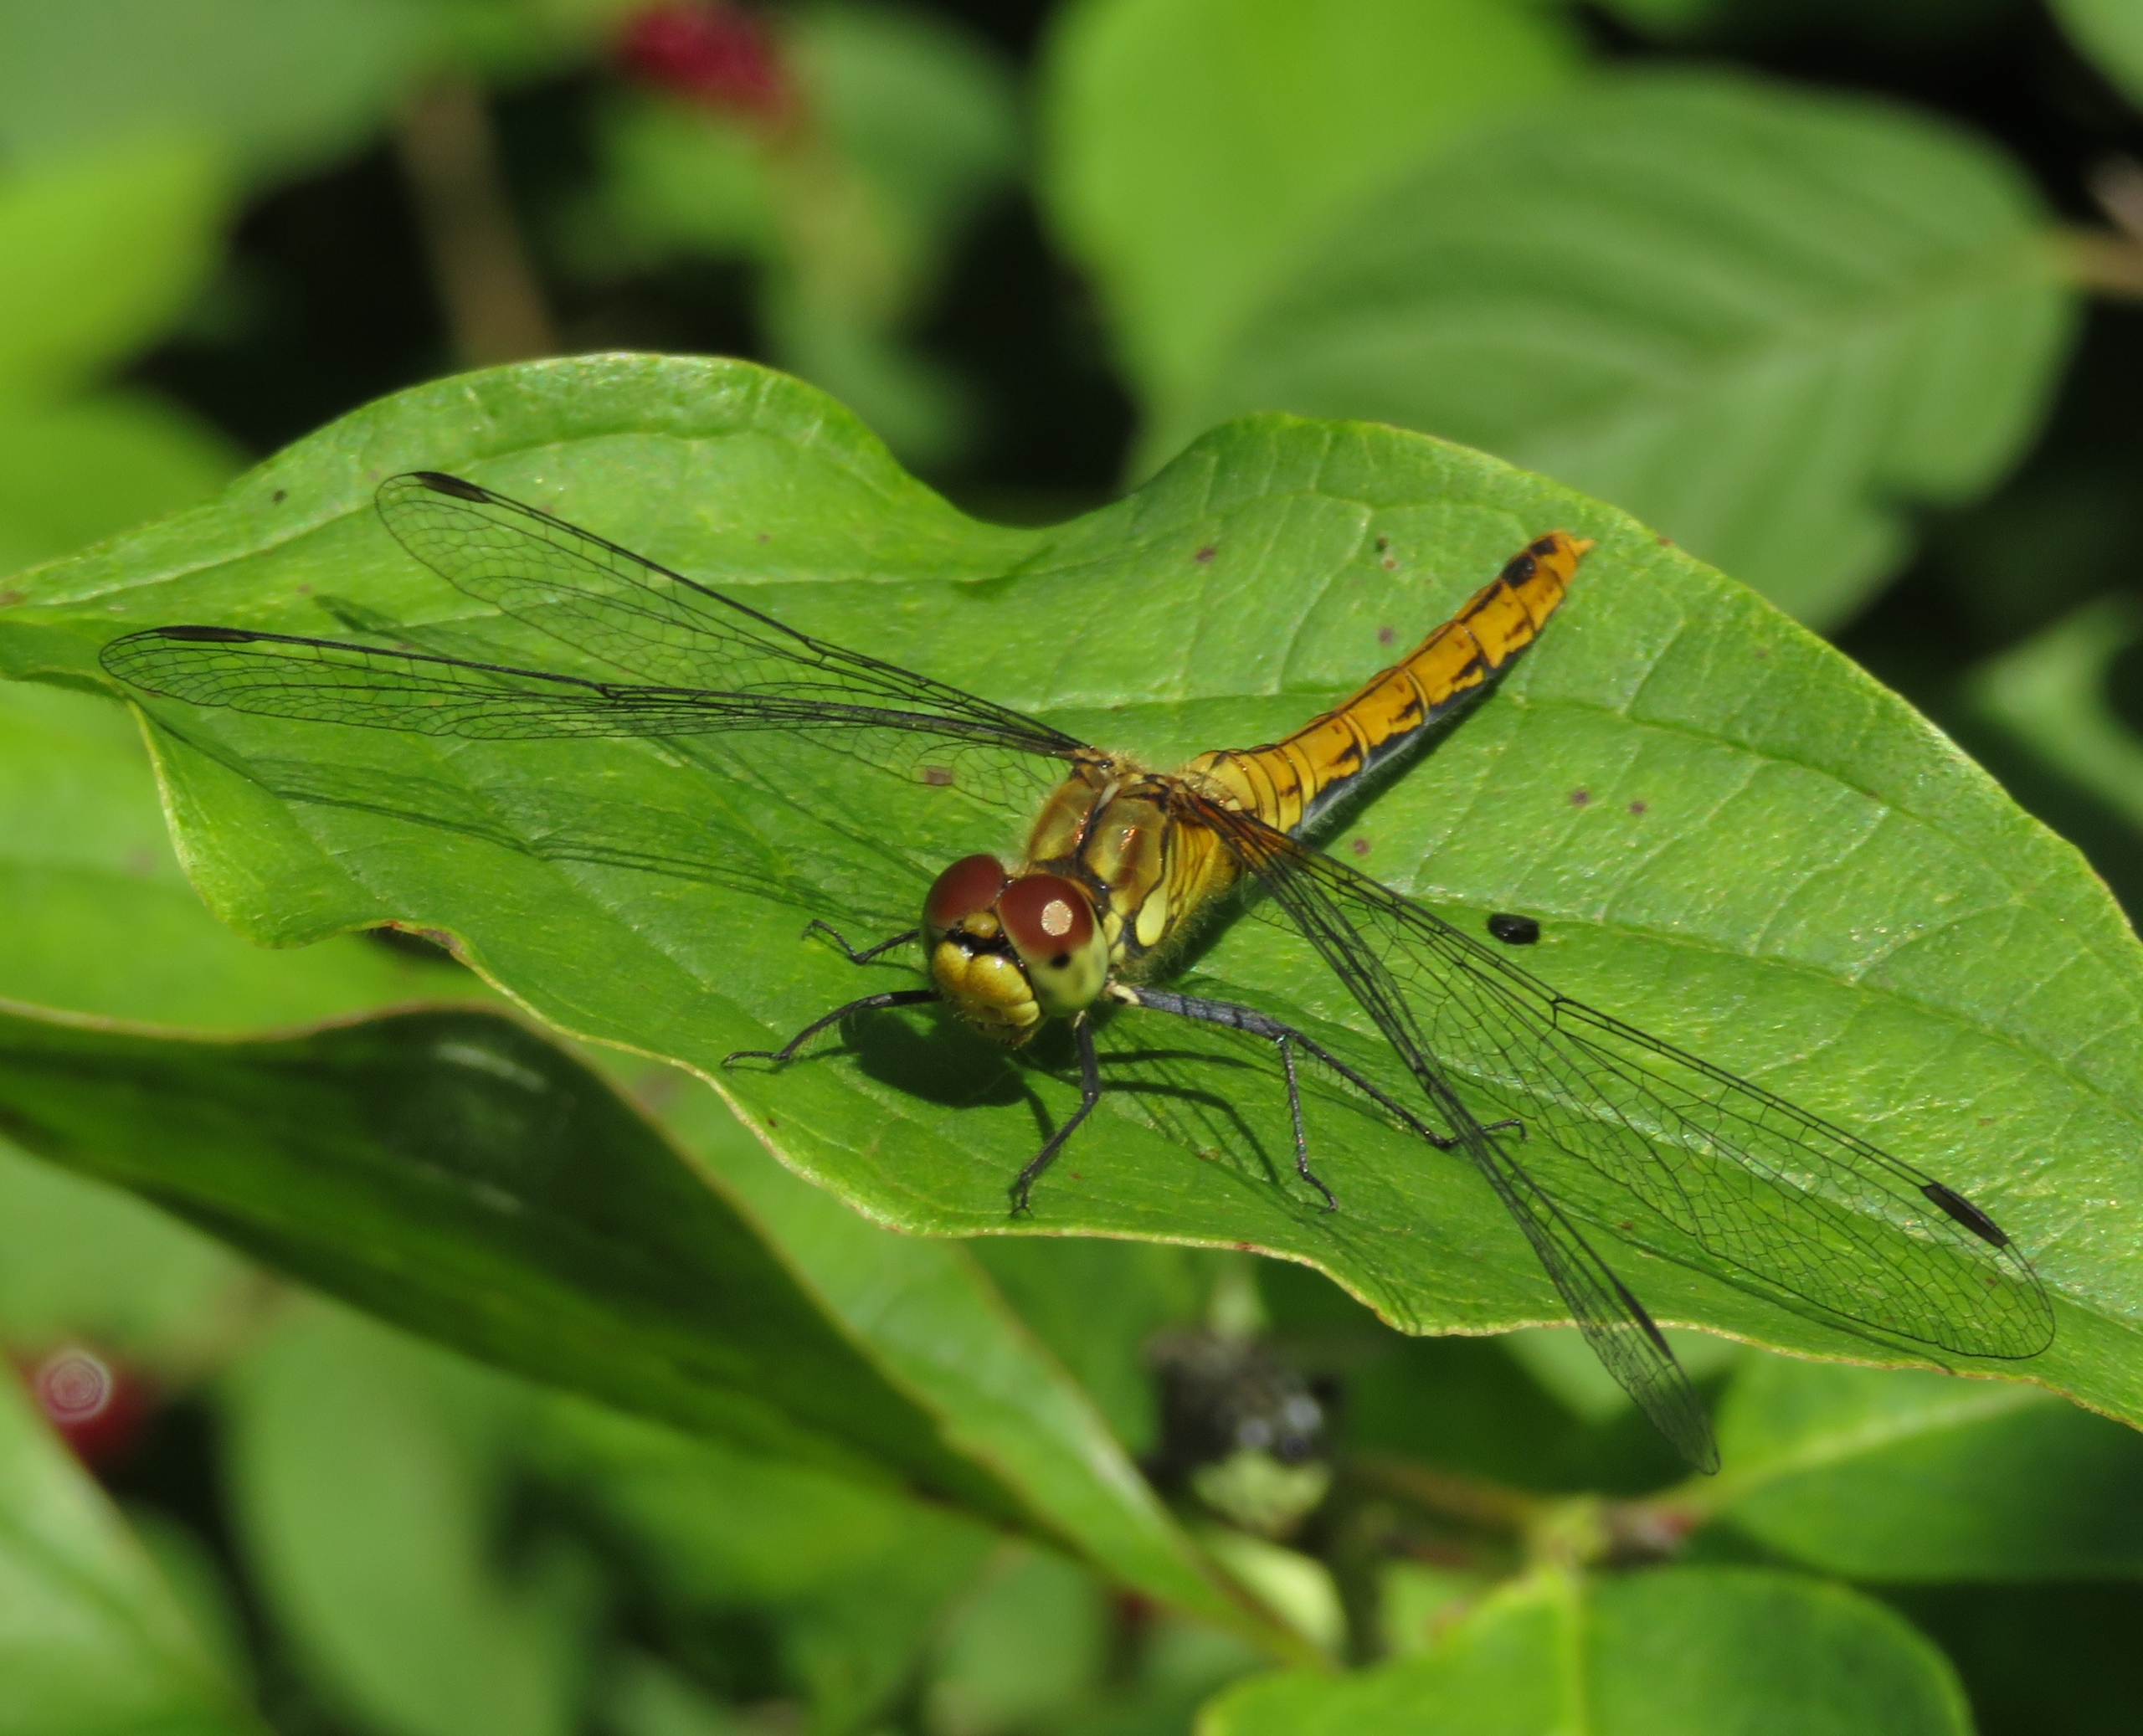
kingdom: Animalia
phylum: Arthropoda
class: Insecta
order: Odonata
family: Libellulidae
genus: Sympetrum
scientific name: Sympetrum striolatum
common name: Stor hedelibel
